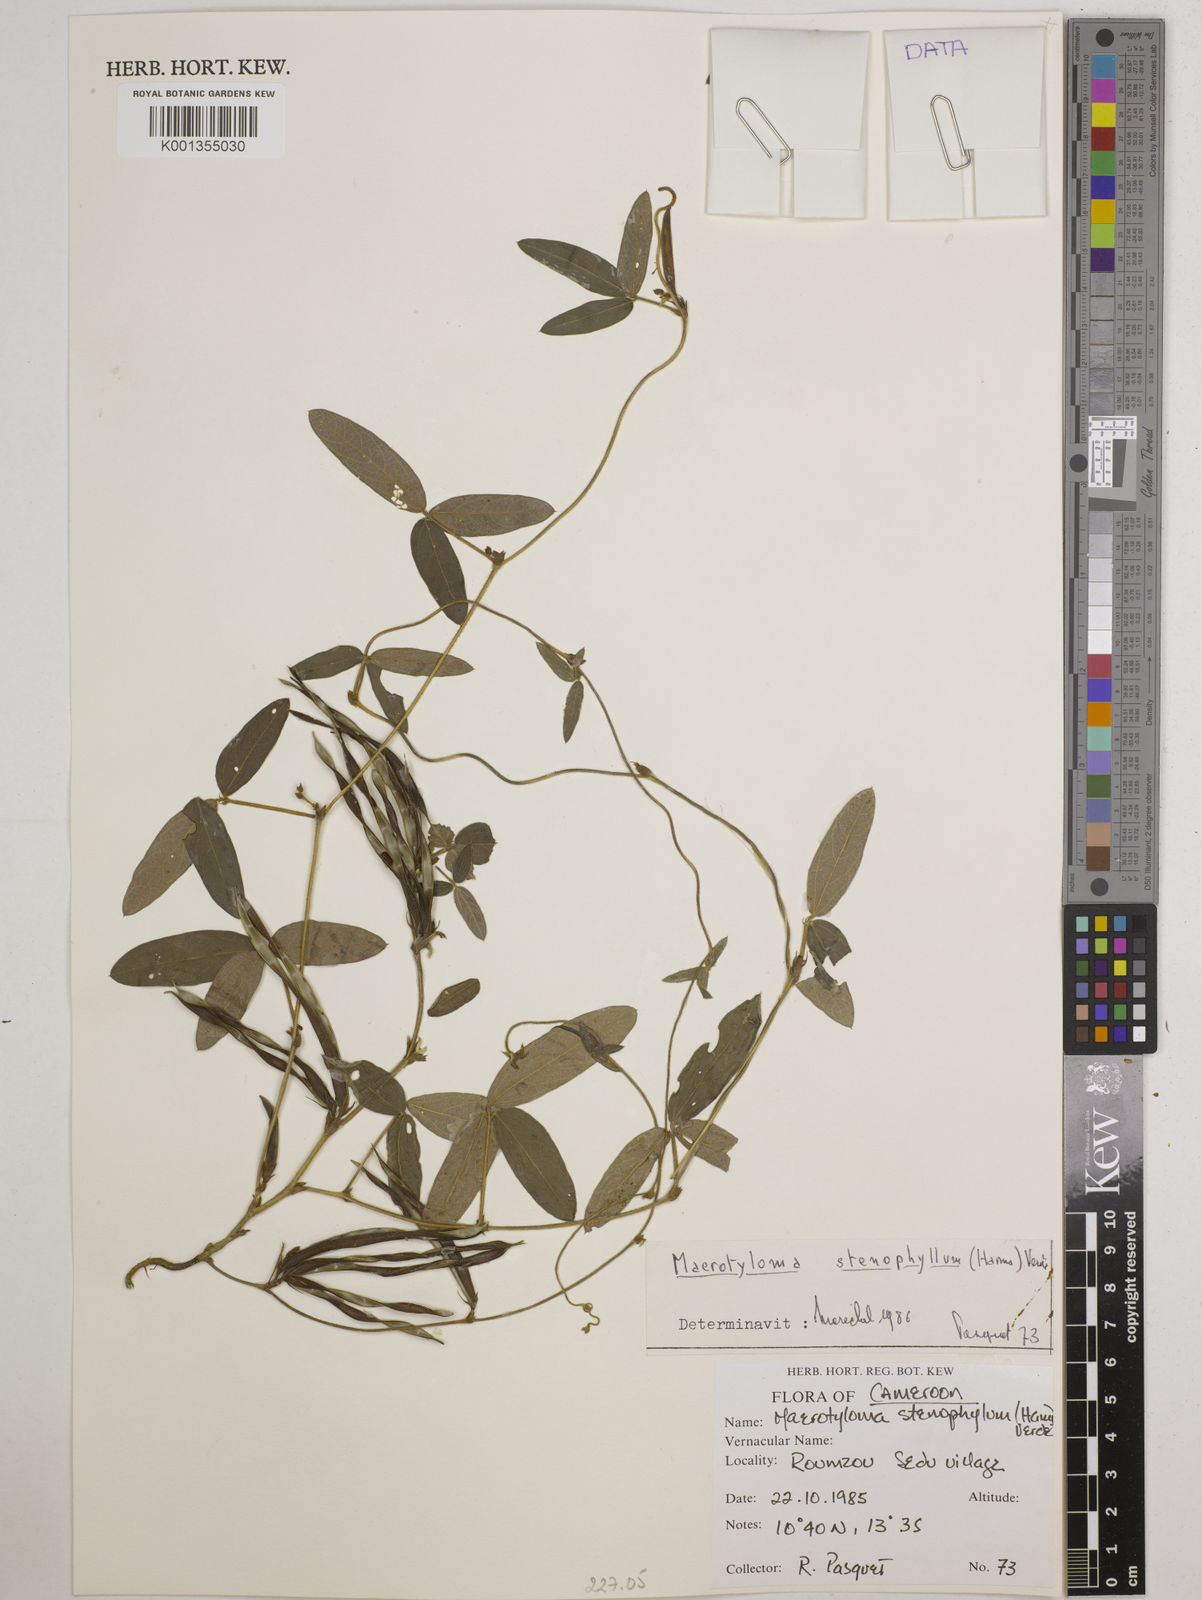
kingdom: Plantae
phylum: Tracheophyta
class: Magnoliopsida
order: Fabales
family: Fabaceae
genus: Macrotyloma
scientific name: Macrotyloma stenophyllum
